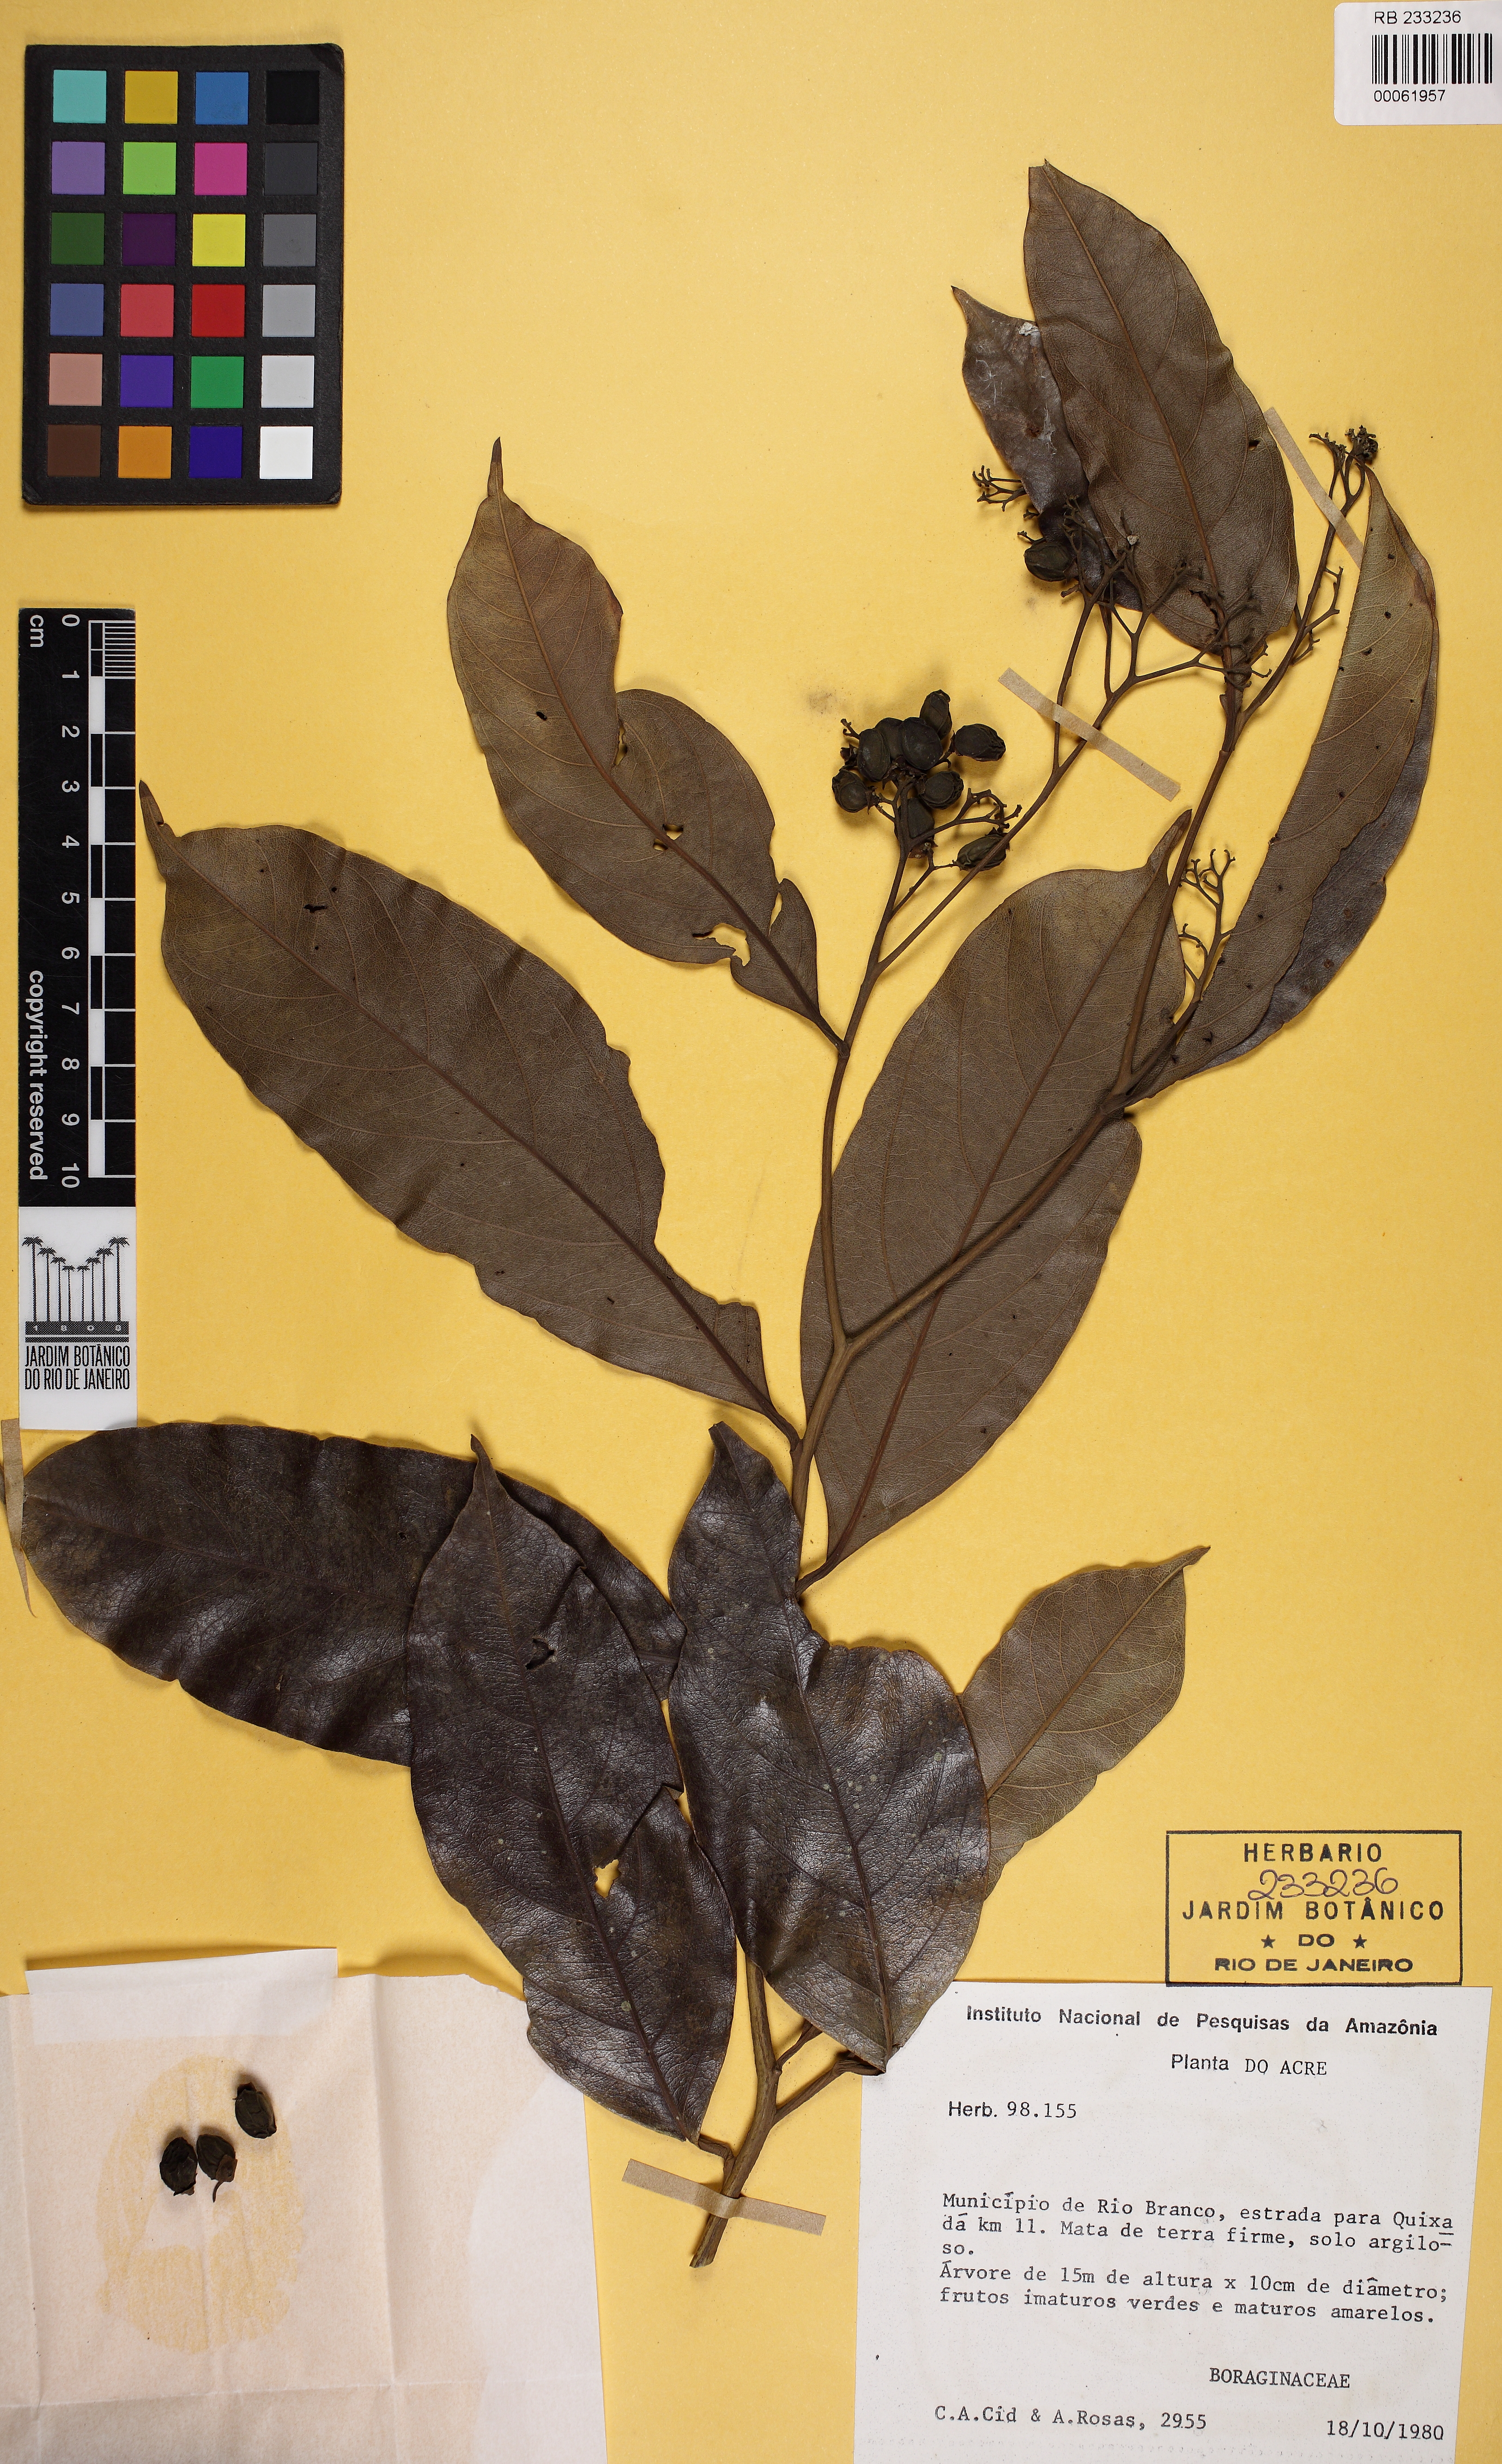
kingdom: Plantae
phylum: Tracheophyta
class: Magnoliopsida
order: Boraginales
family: Cordiaceae
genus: Cordia
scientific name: Cordia
